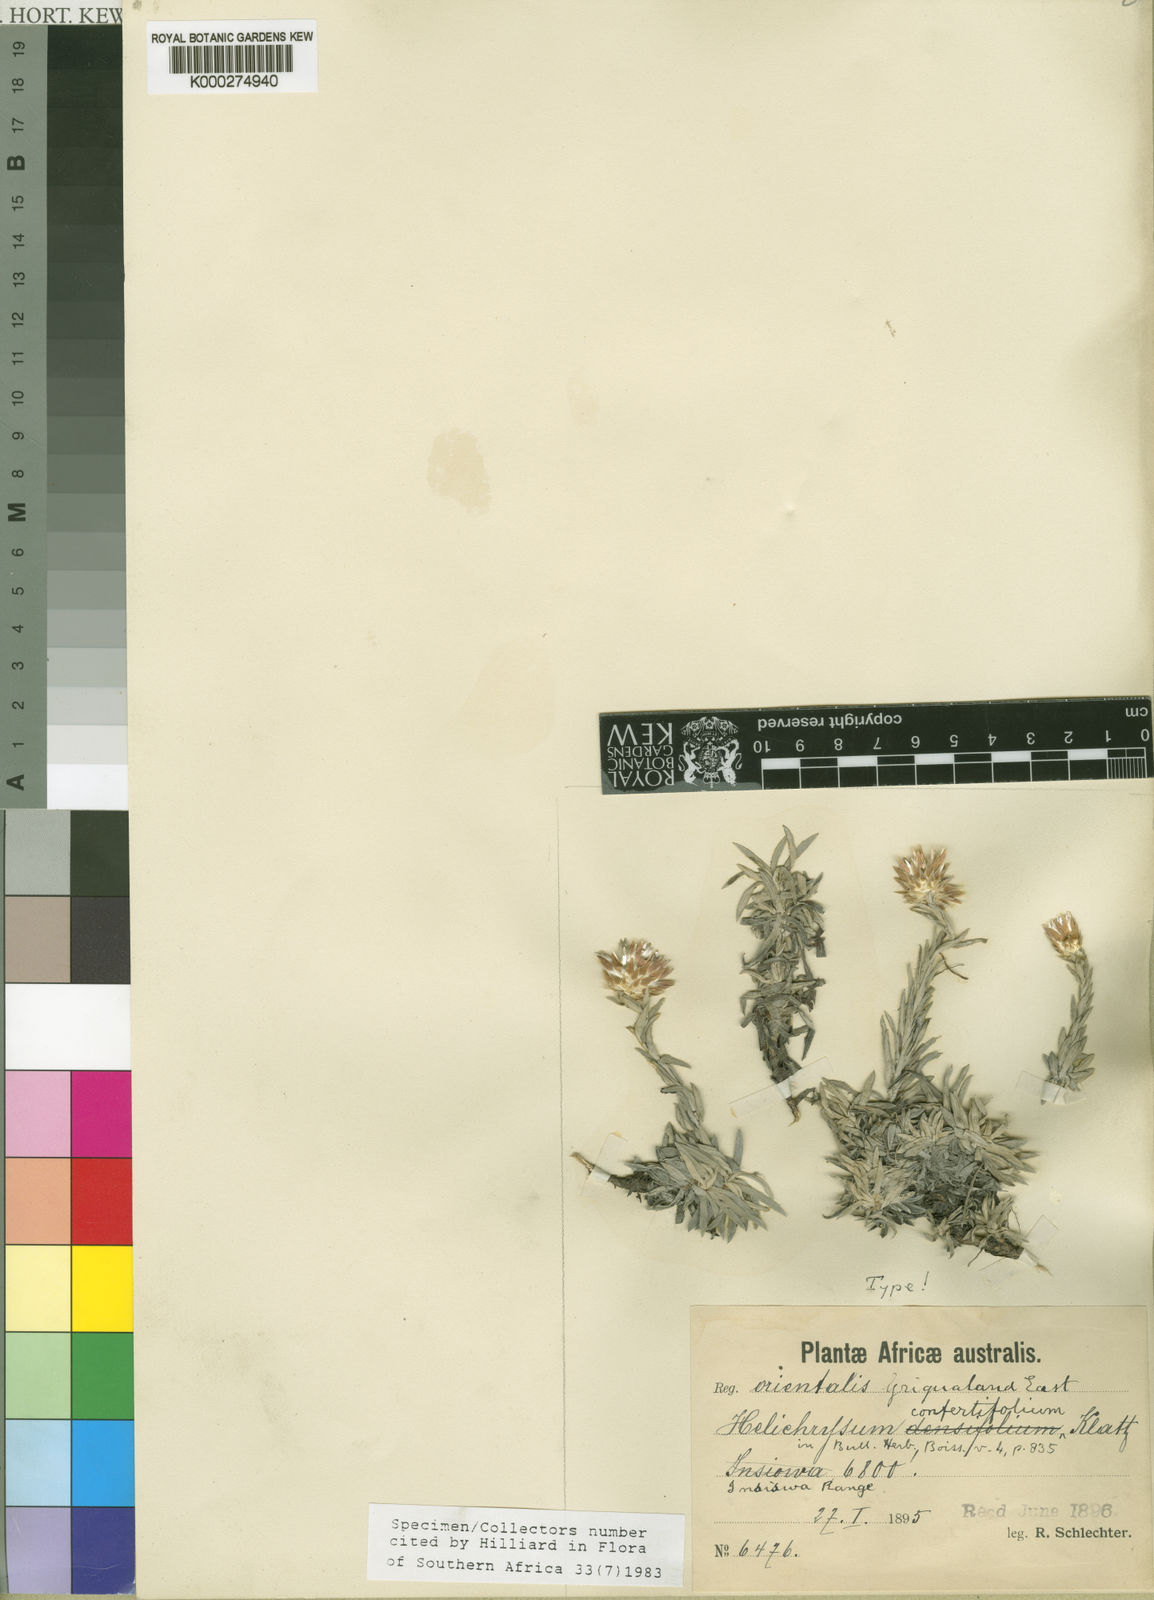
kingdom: Plantae
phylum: Tracheophyta
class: Magnoliopsida
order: Asterales
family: Asteraceae
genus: Helichrysum
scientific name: Helichrysum confertifolium
